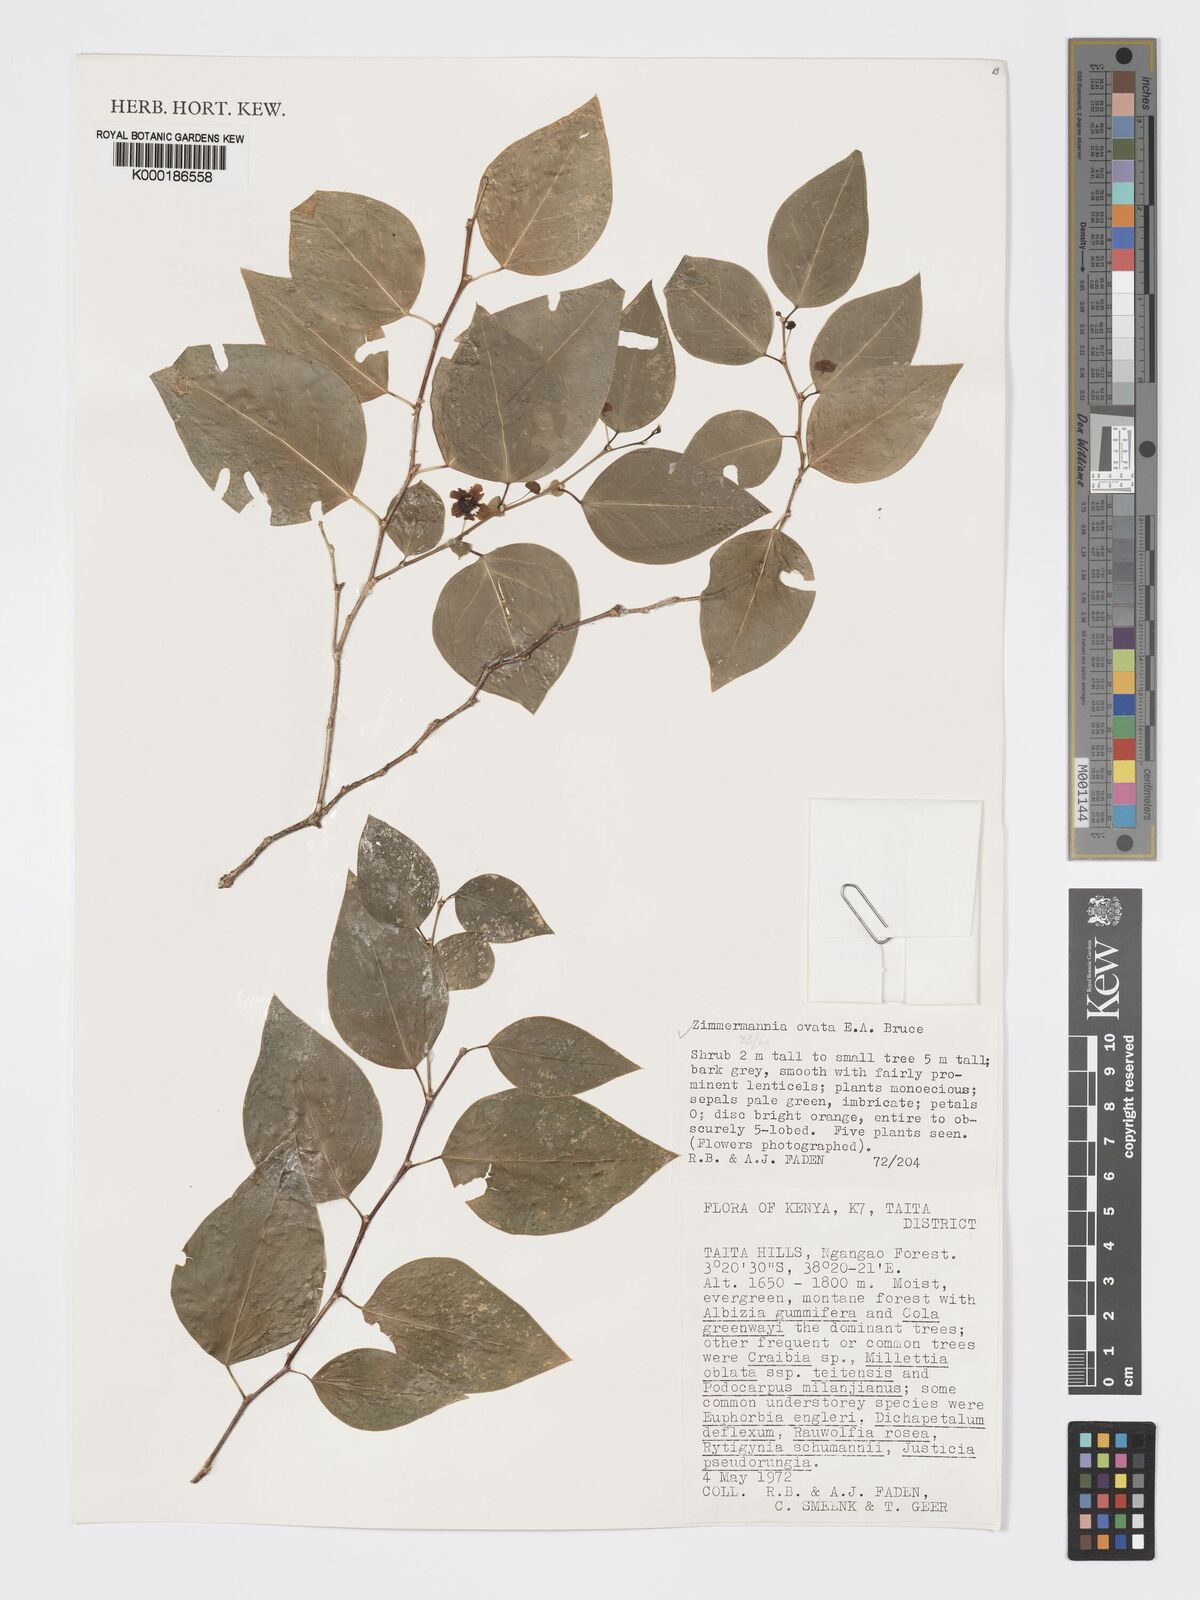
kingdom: Plantae
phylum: Tracheophyta
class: Magnoliopsida
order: Malpighiales
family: Phyllanthaceae
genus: Meineckia
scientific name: Meineckia ovata
